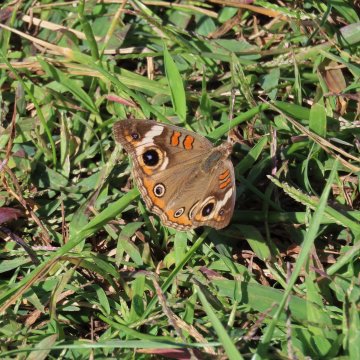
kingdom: Animalia
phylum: Arthropoda
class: Insecta
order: Lepidoptera
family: Nymphalidae
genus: Junonia
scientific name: Junonia coenia
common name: Common Buckeye
